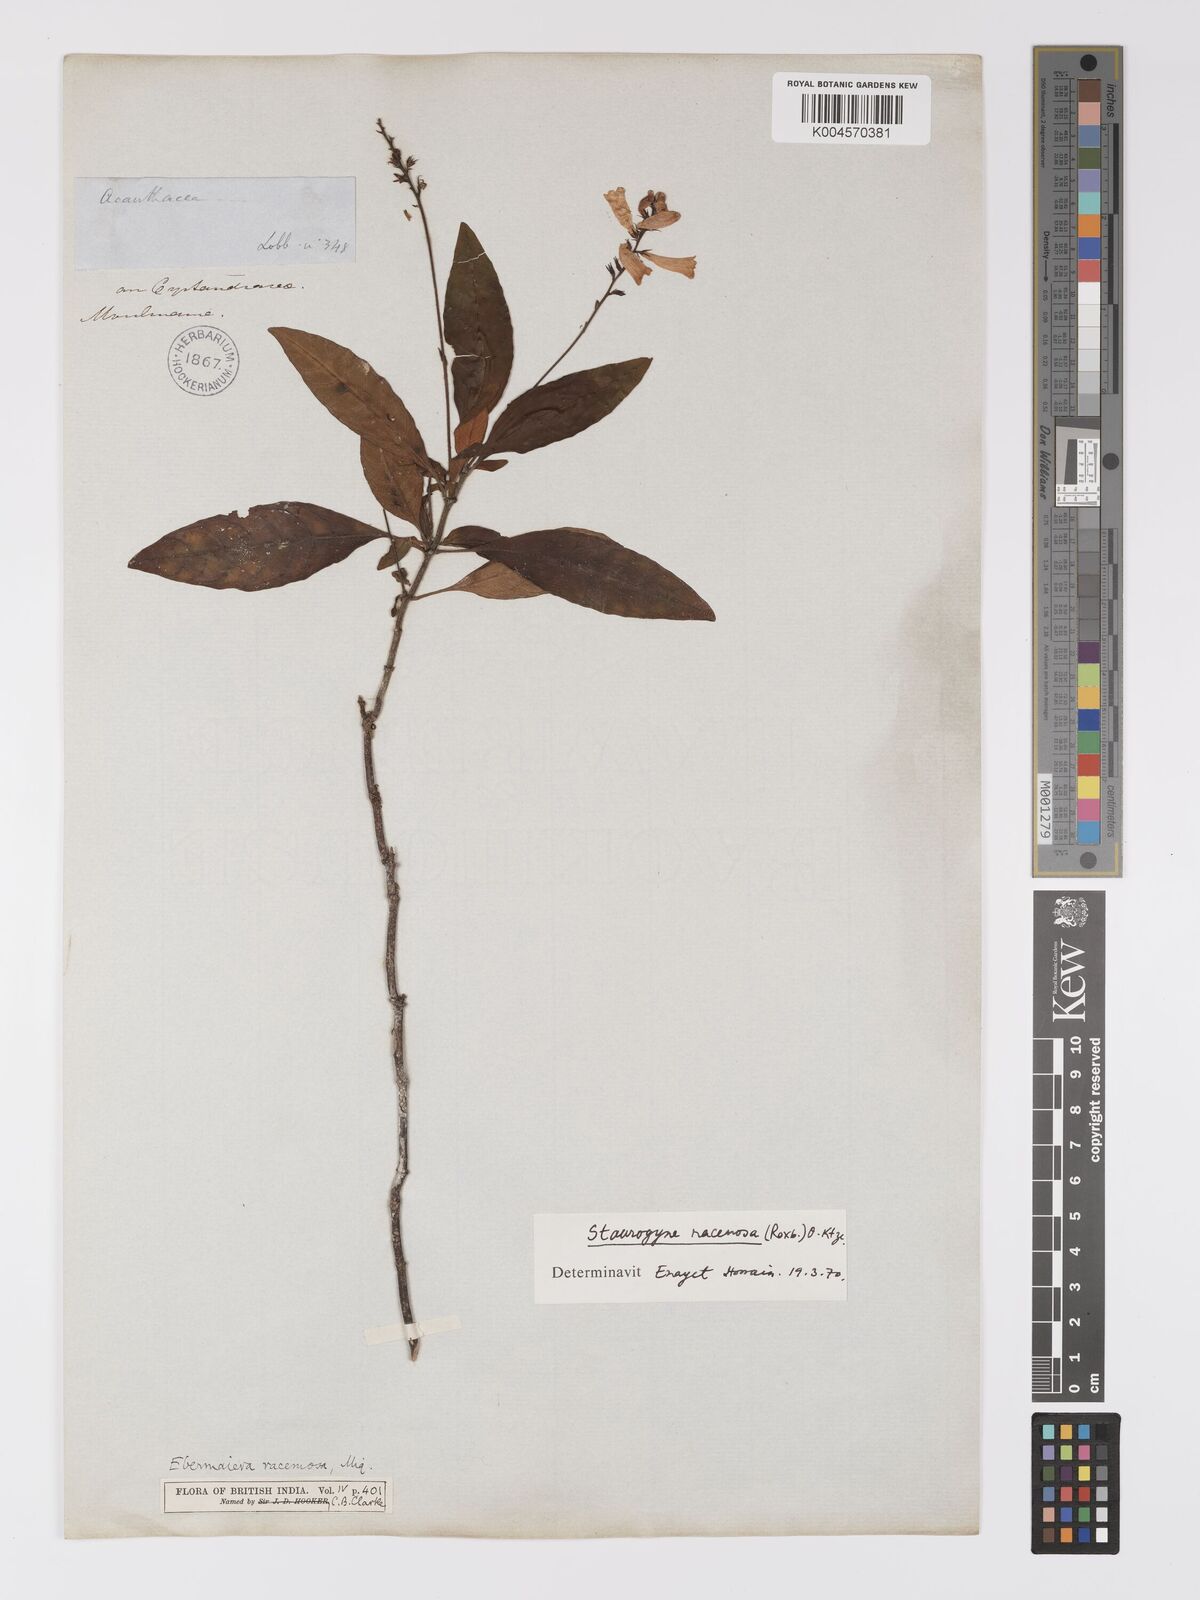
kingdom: Plantae
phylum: Tracheophyta
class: Magnoliopsida
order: Lamiales
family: Acanthaceae
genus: Staurogyne
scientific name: Staurogyne racemosa
